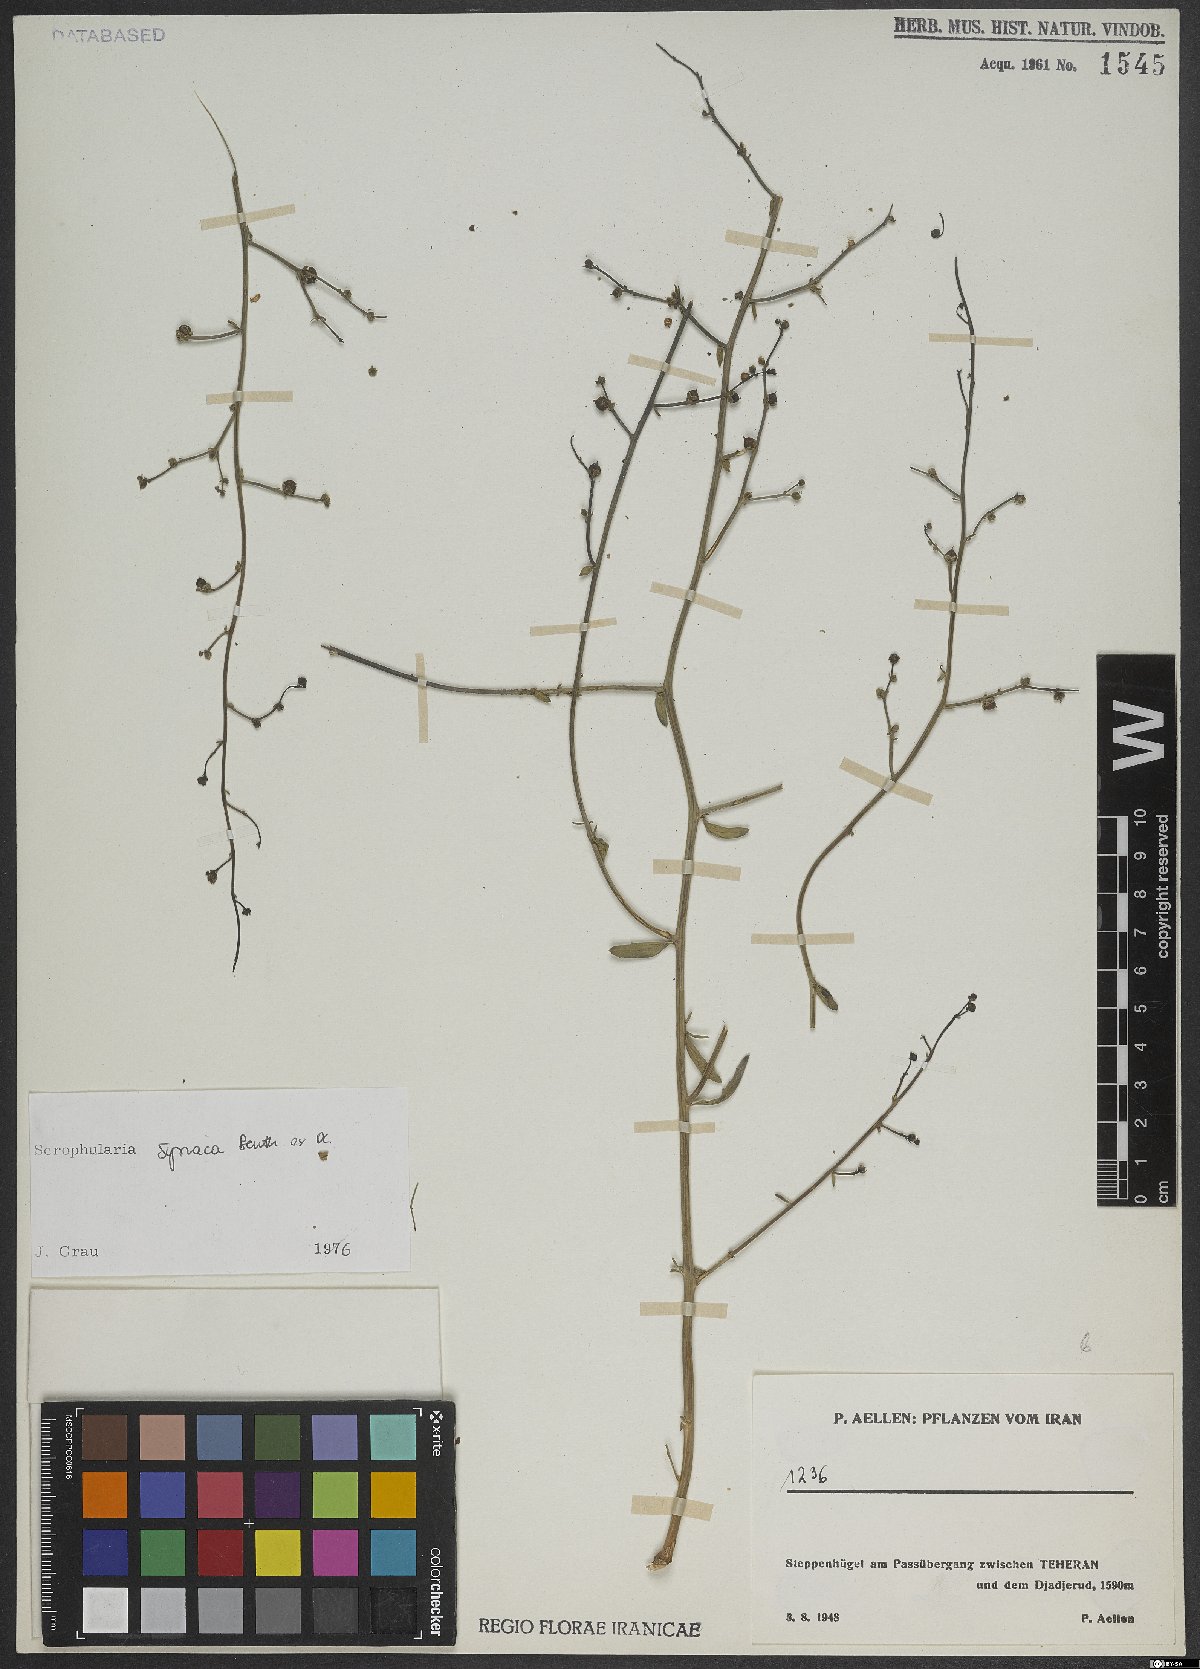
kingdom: Plantae
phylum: Tracheophyta
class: Magnoliopsida
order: Lamiales
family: Scrophulariaceae
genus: Scrophularia
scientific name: Scrophularia hypericifolia
